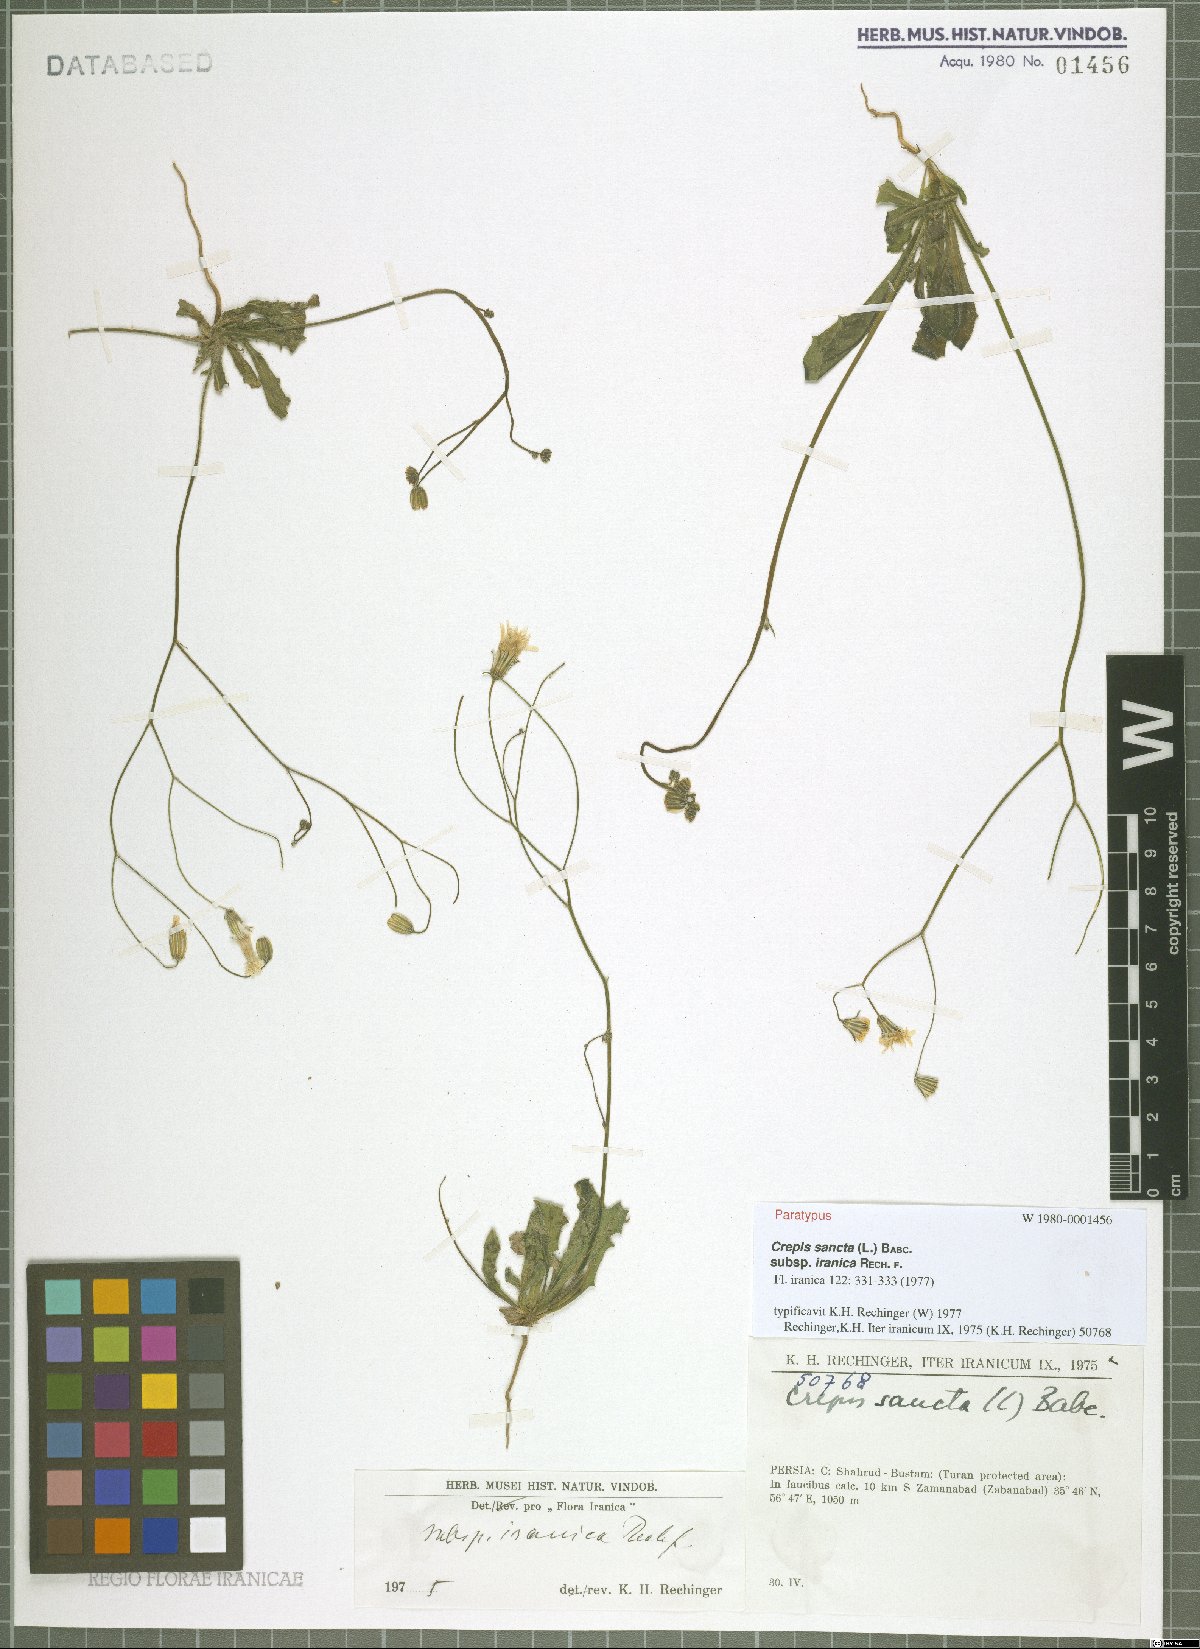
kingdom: Plantae
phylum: Tracheophyta
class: Magnoliopsida
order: Asterales
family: Asteraceae
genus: Crepis
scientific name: Crepis sancta
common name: Hawk's-beard
